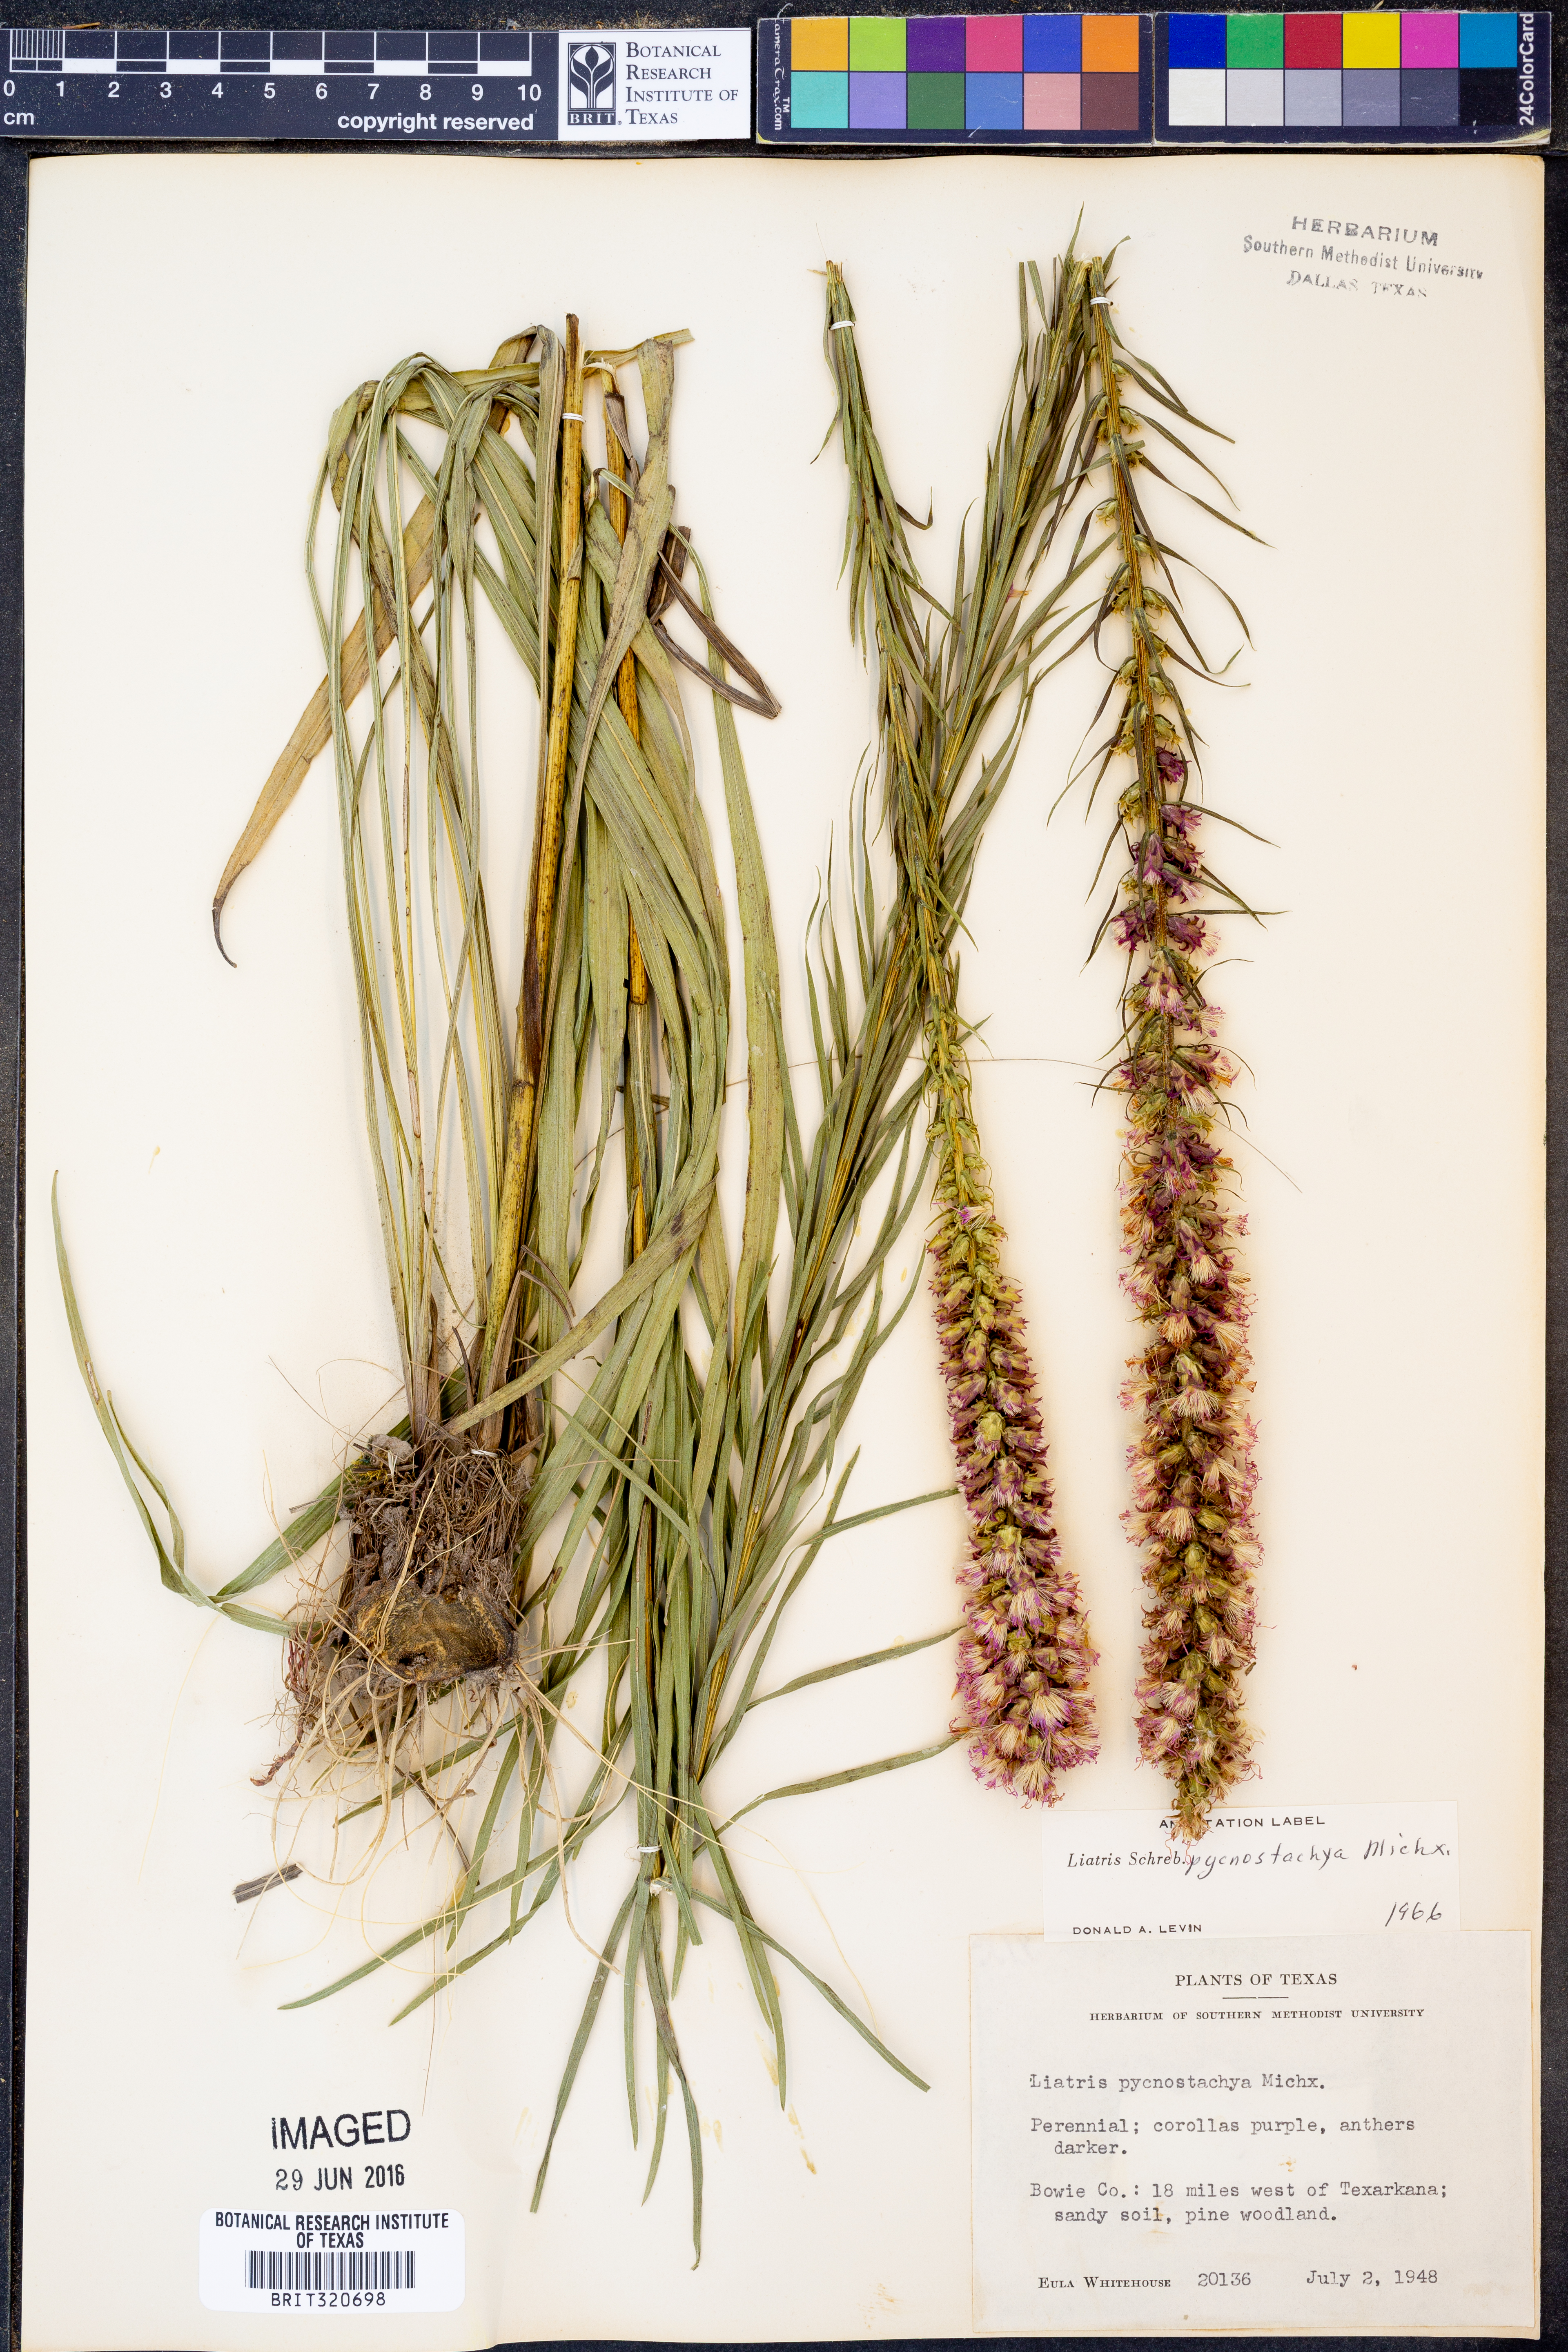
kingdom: Plantae
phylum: Tracheophyta
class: Magnoliopsida
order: Asterales
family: Asteraceae
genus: Liatris
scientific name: Liatris pycnostachya
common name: Cattail gayfeather
